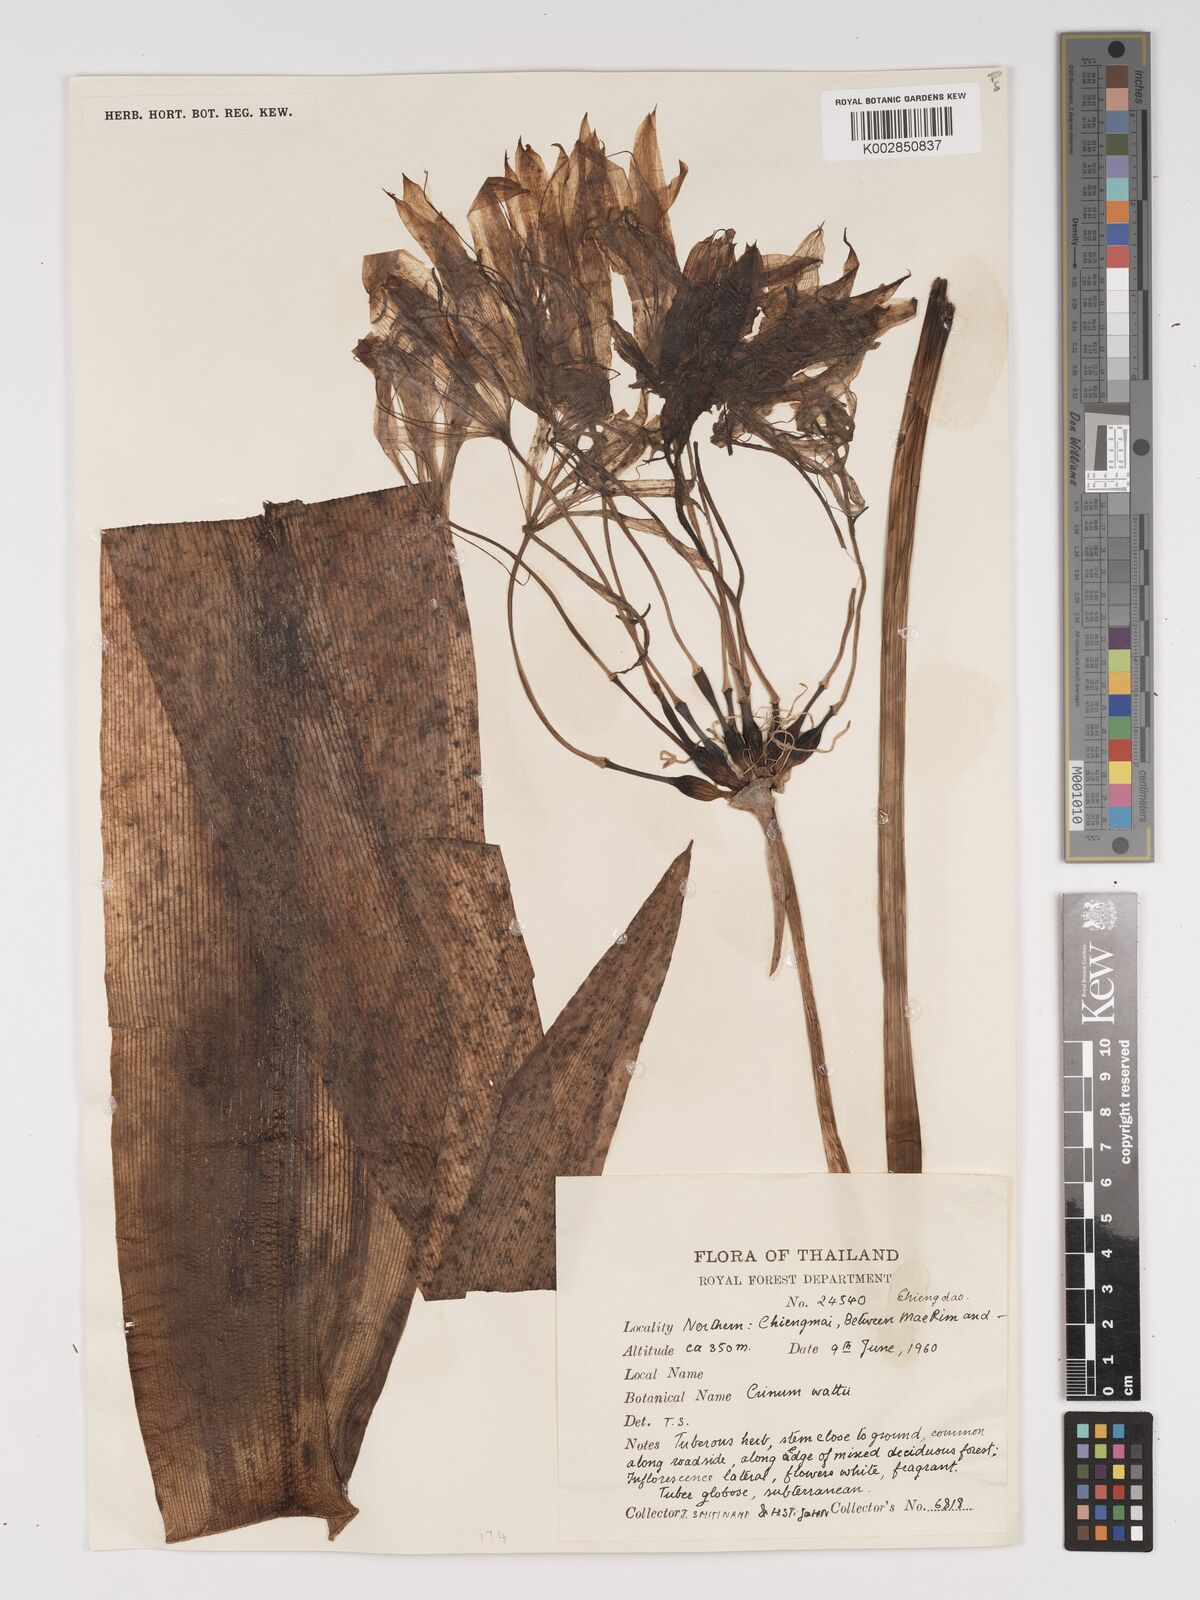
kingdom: Plantae
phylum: Tracheophyta
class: Liliopsida
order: Asparagales
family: Amaryllidaceae
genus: Crinum
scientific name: Crinum wattii
